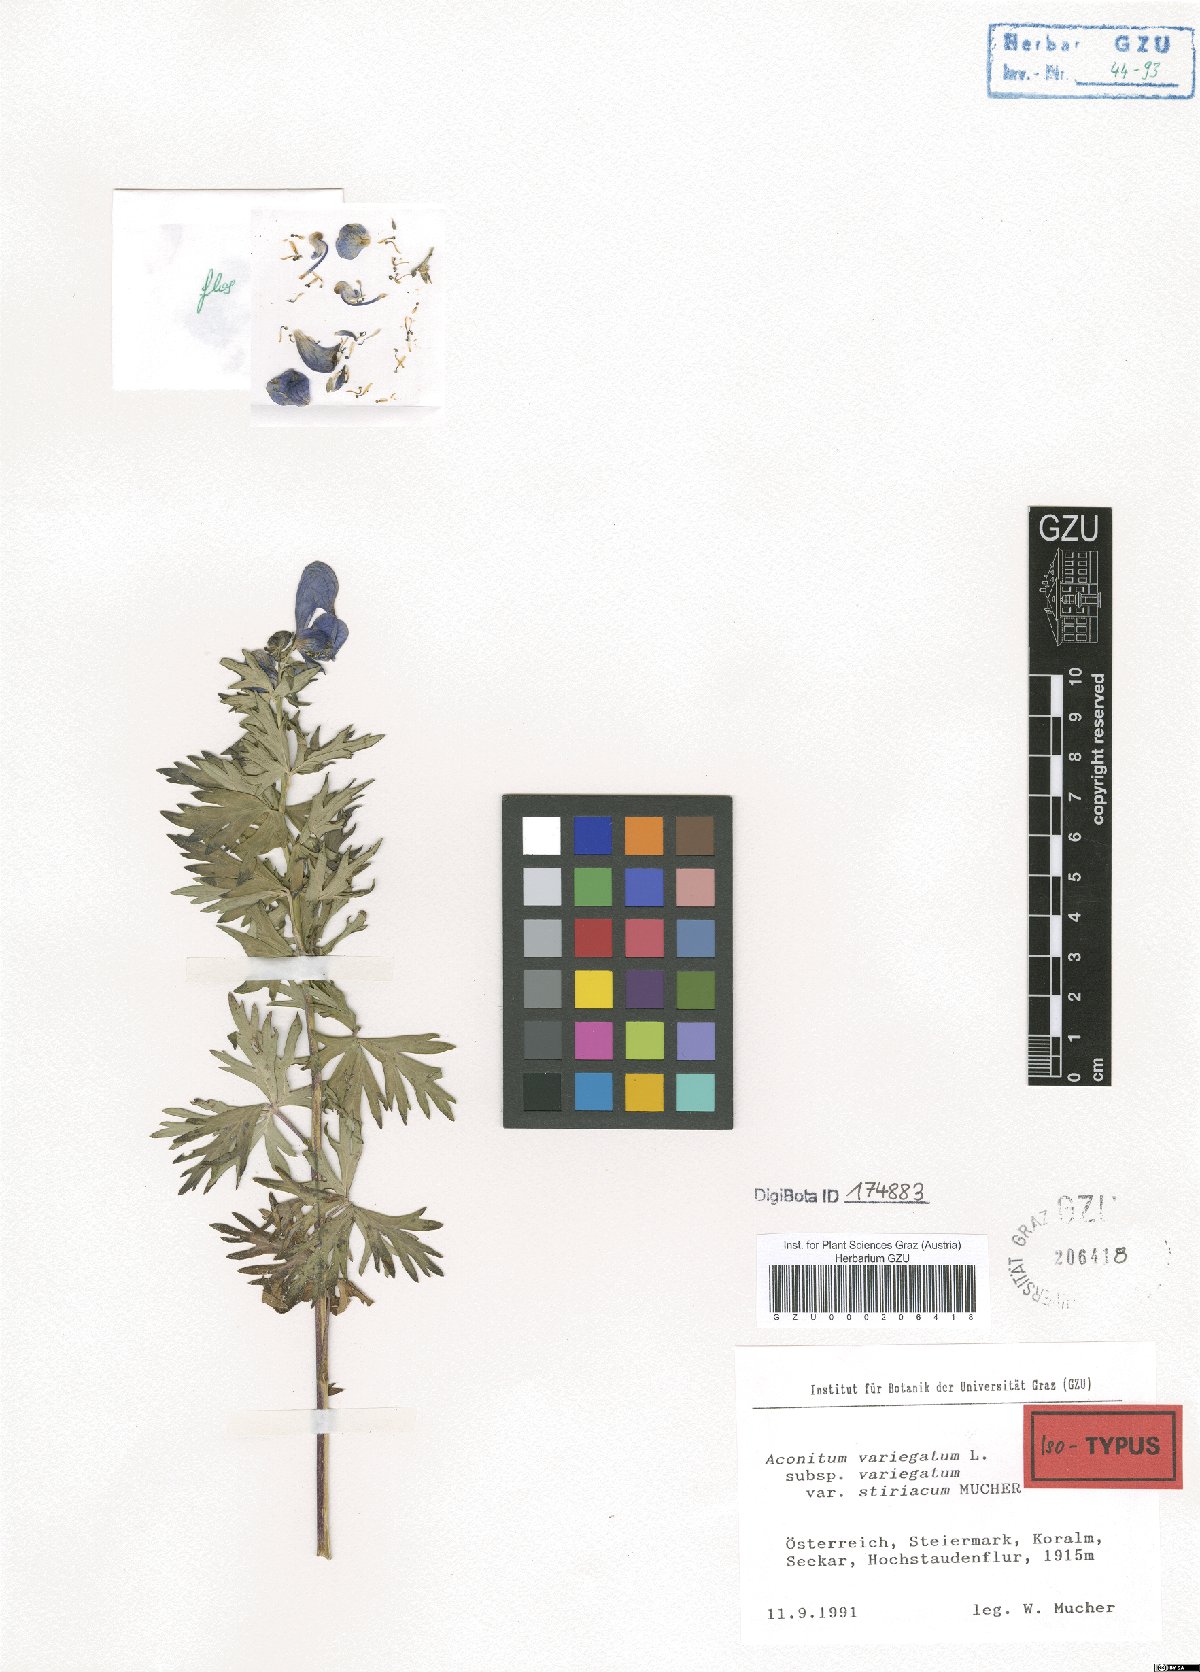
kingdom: Plantae
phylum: Tracheophyta
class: Magnoliopsida
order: Ranunculales
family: Ranunculaceae
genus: Aconitum
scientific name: Aconitum variegatum
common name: Manchurian monkshood
